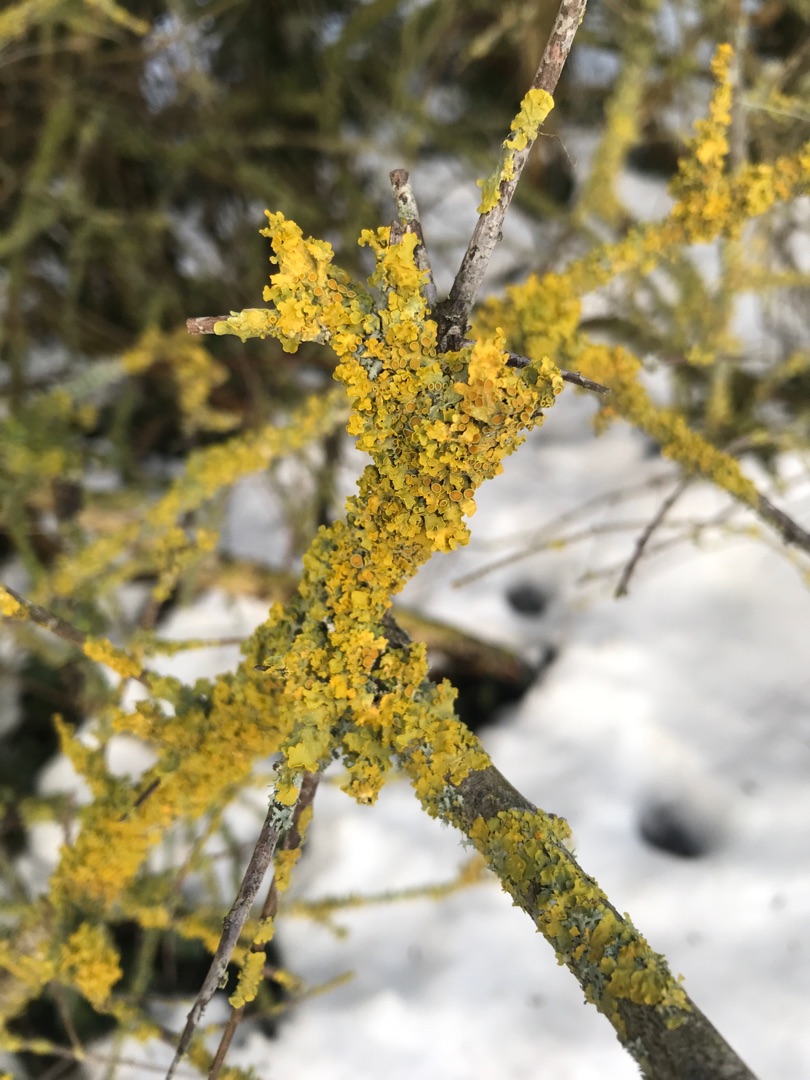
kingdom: Fungi
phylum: Ascomycota
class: Lecanoromycetes
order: Teloschistales
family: Teloschistaceae
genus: Xanthoria
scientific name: Xanthoria parietina
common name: Almindelig væggelav
